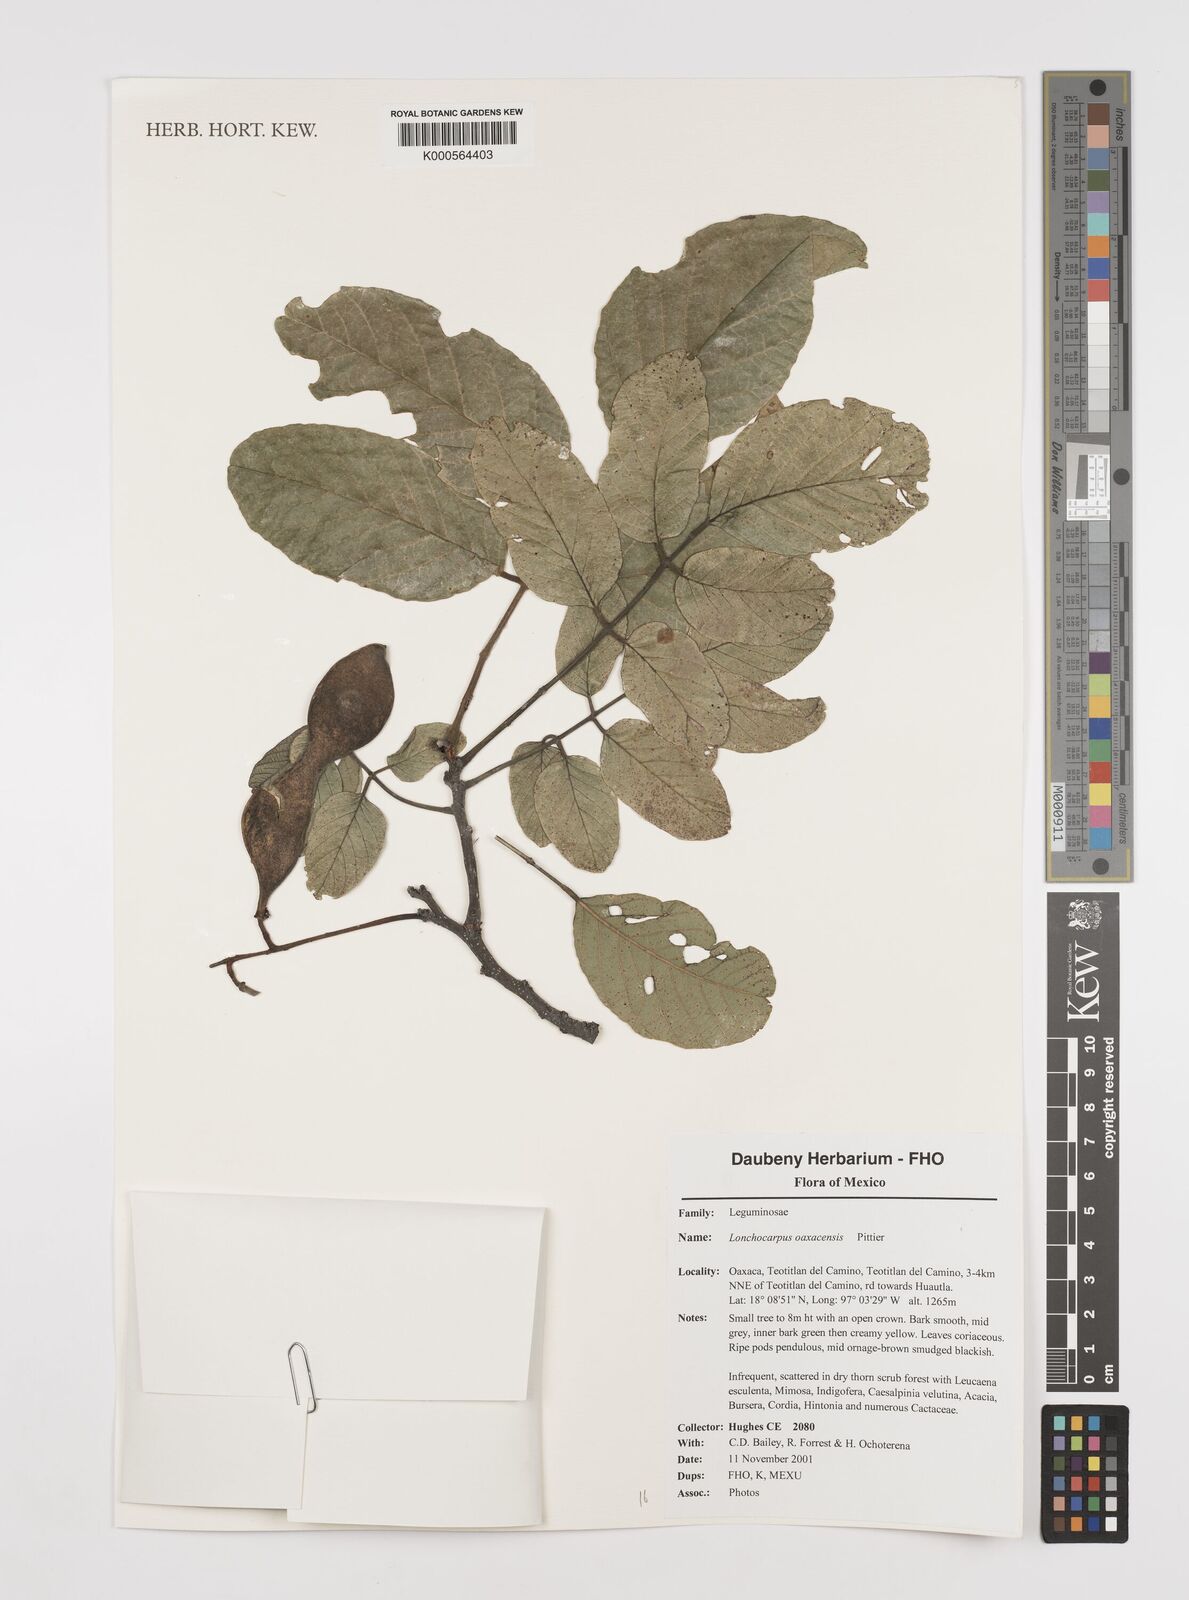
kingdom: Plantae
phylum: Tracheophyta
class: Magnoliopsida
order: Fabales
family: Fabaceae
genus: Lonchocarpus
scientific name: Lonchocarpus oaxacensis
